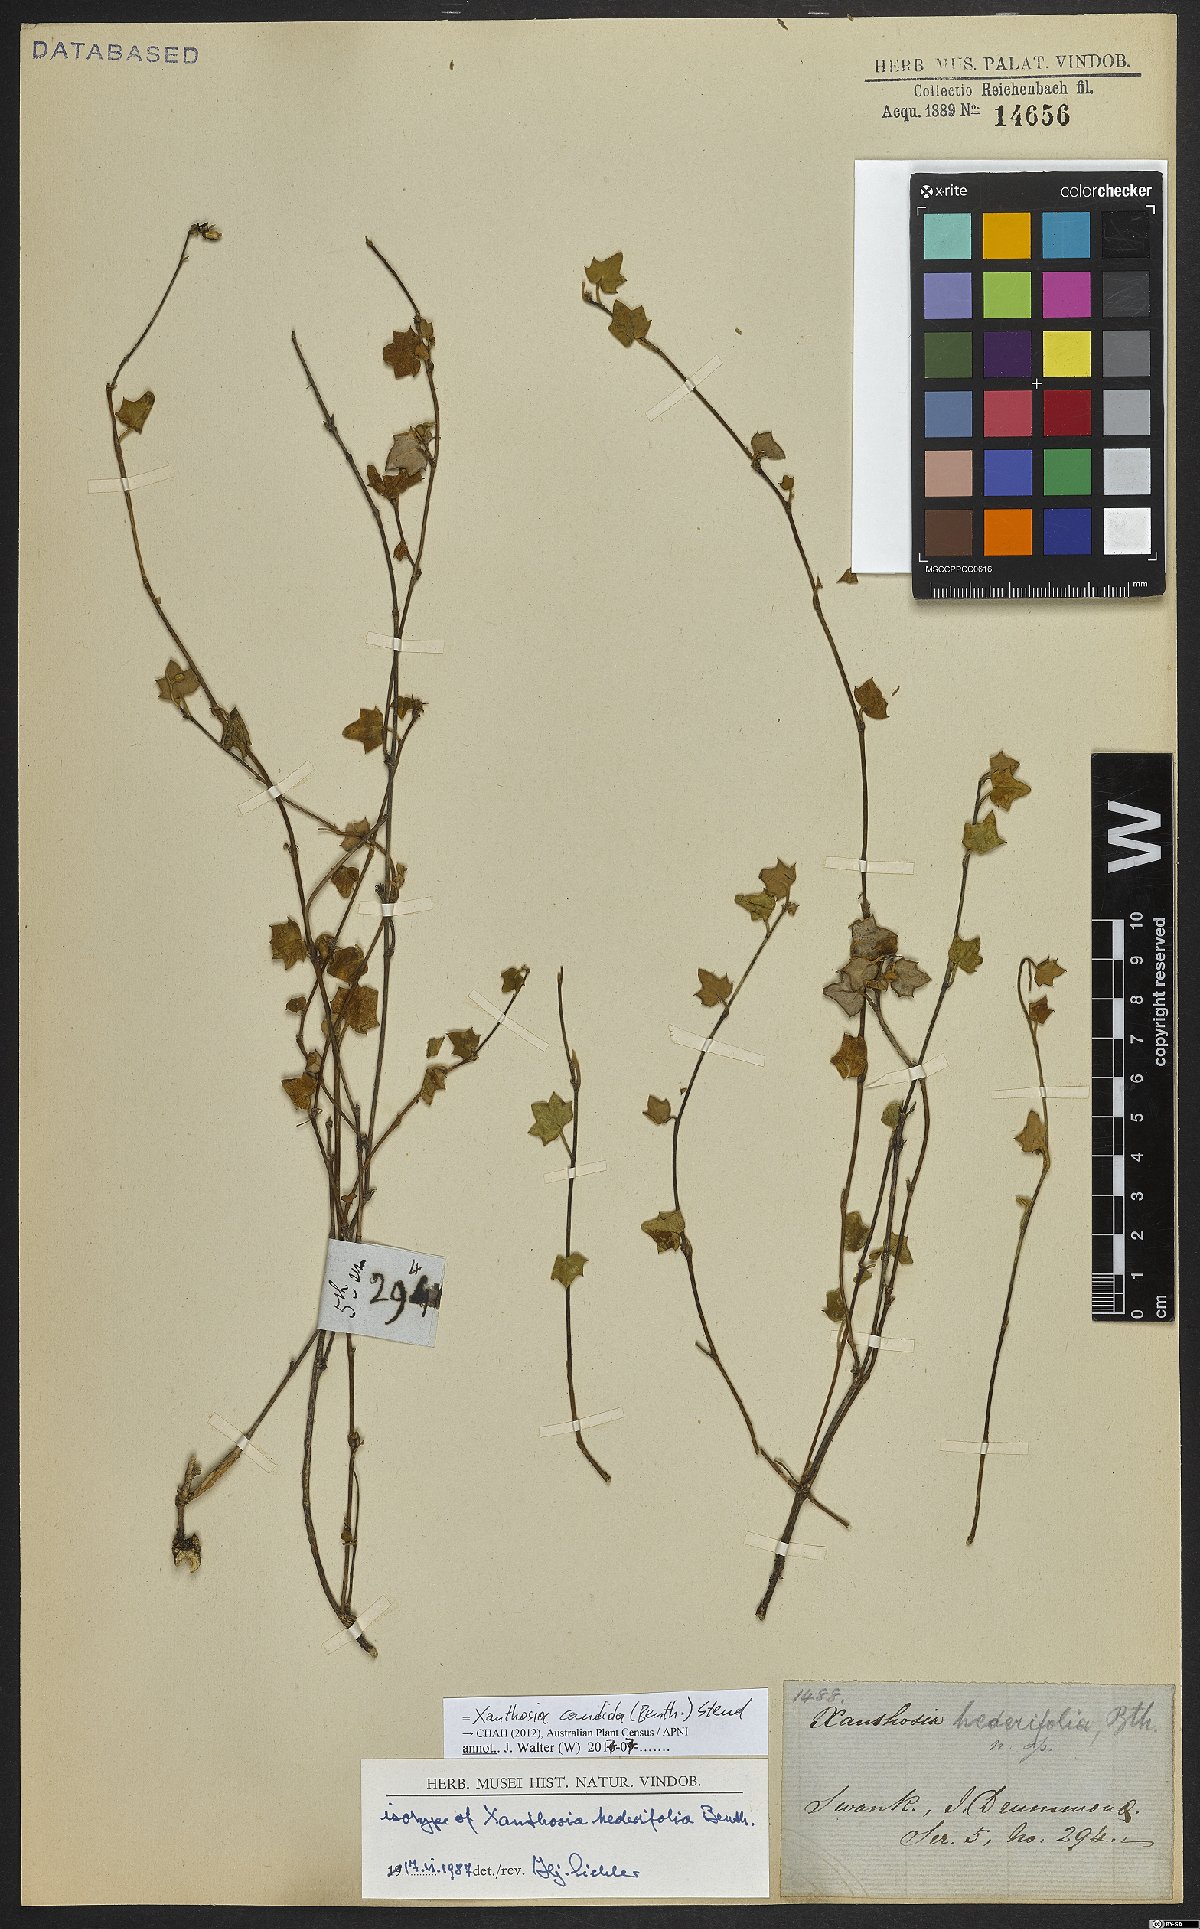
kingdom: Plantae
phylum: Tracheophyta
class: Magnoliopsida
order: Apiales
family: Apiaceae
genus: Xanthosia
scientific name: Xanthosia candida
